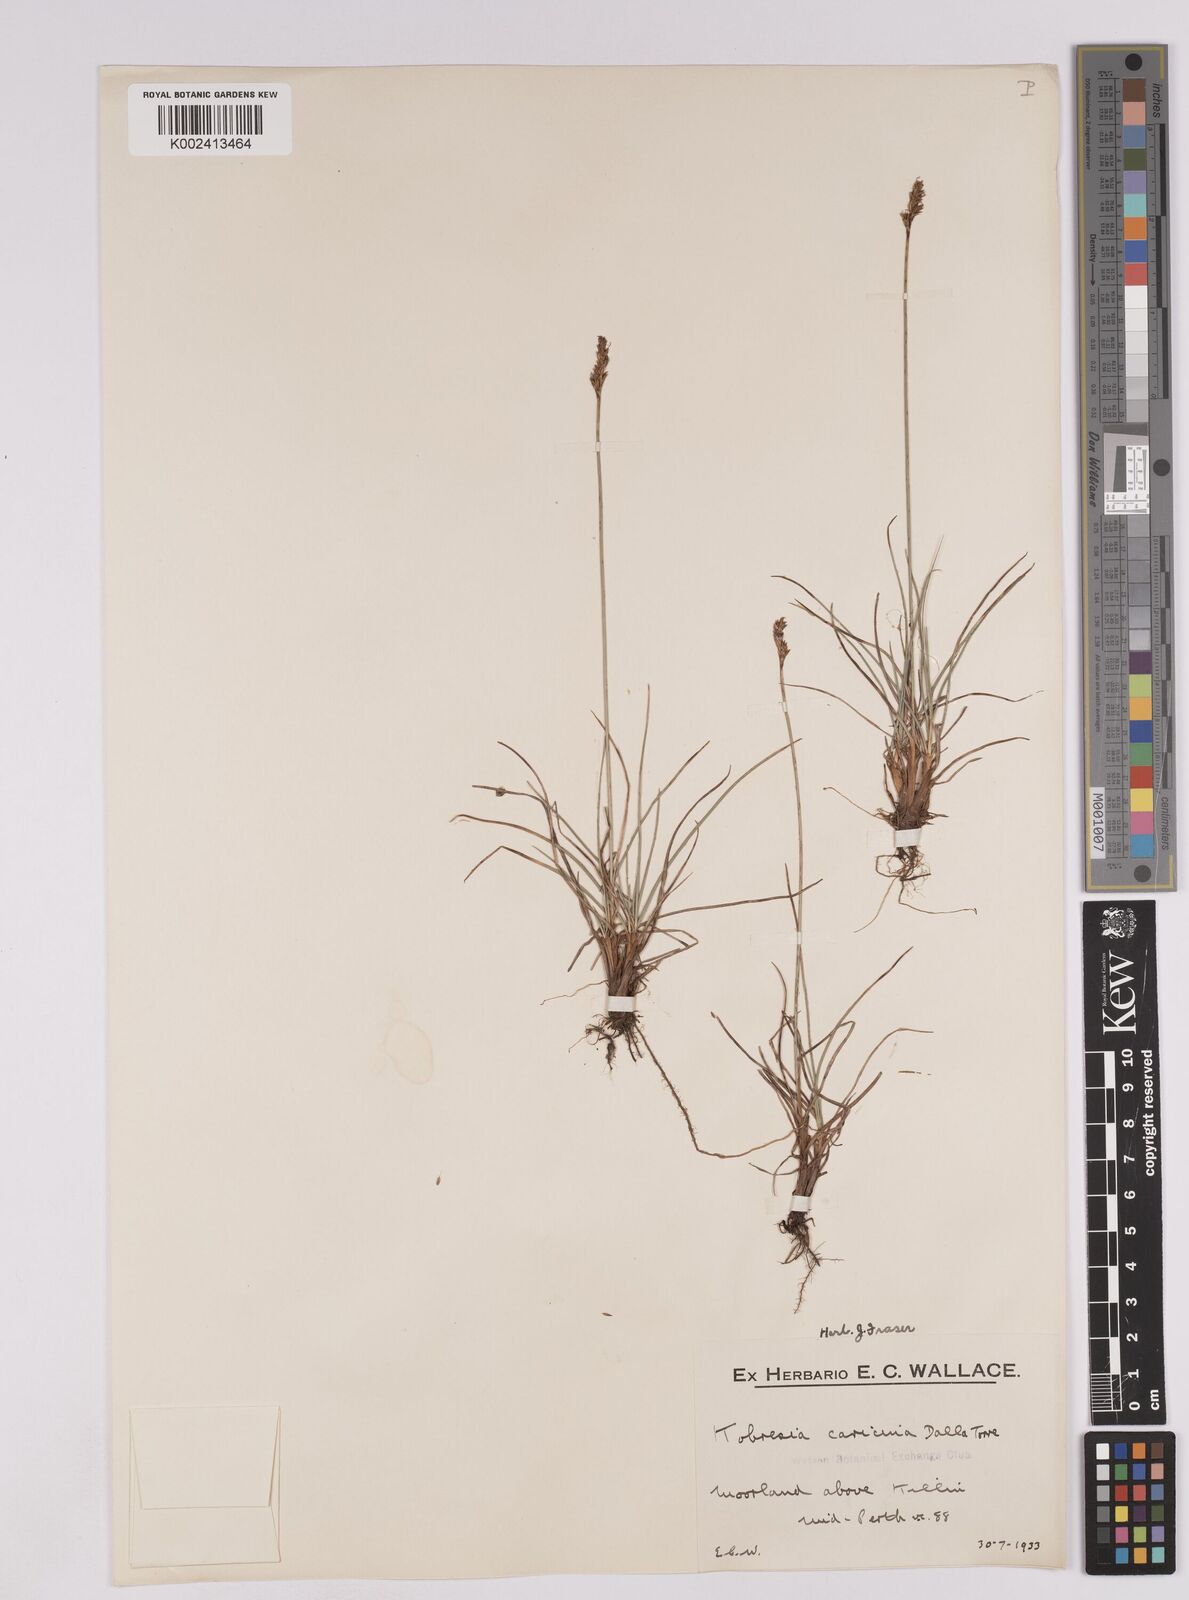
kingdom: Plantae
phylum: Tracheophyta
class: Liliopsida
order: Poales
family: Cyperaceae
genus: Carex
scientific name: Carex simpliciuscula
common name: Simple bog sedge
